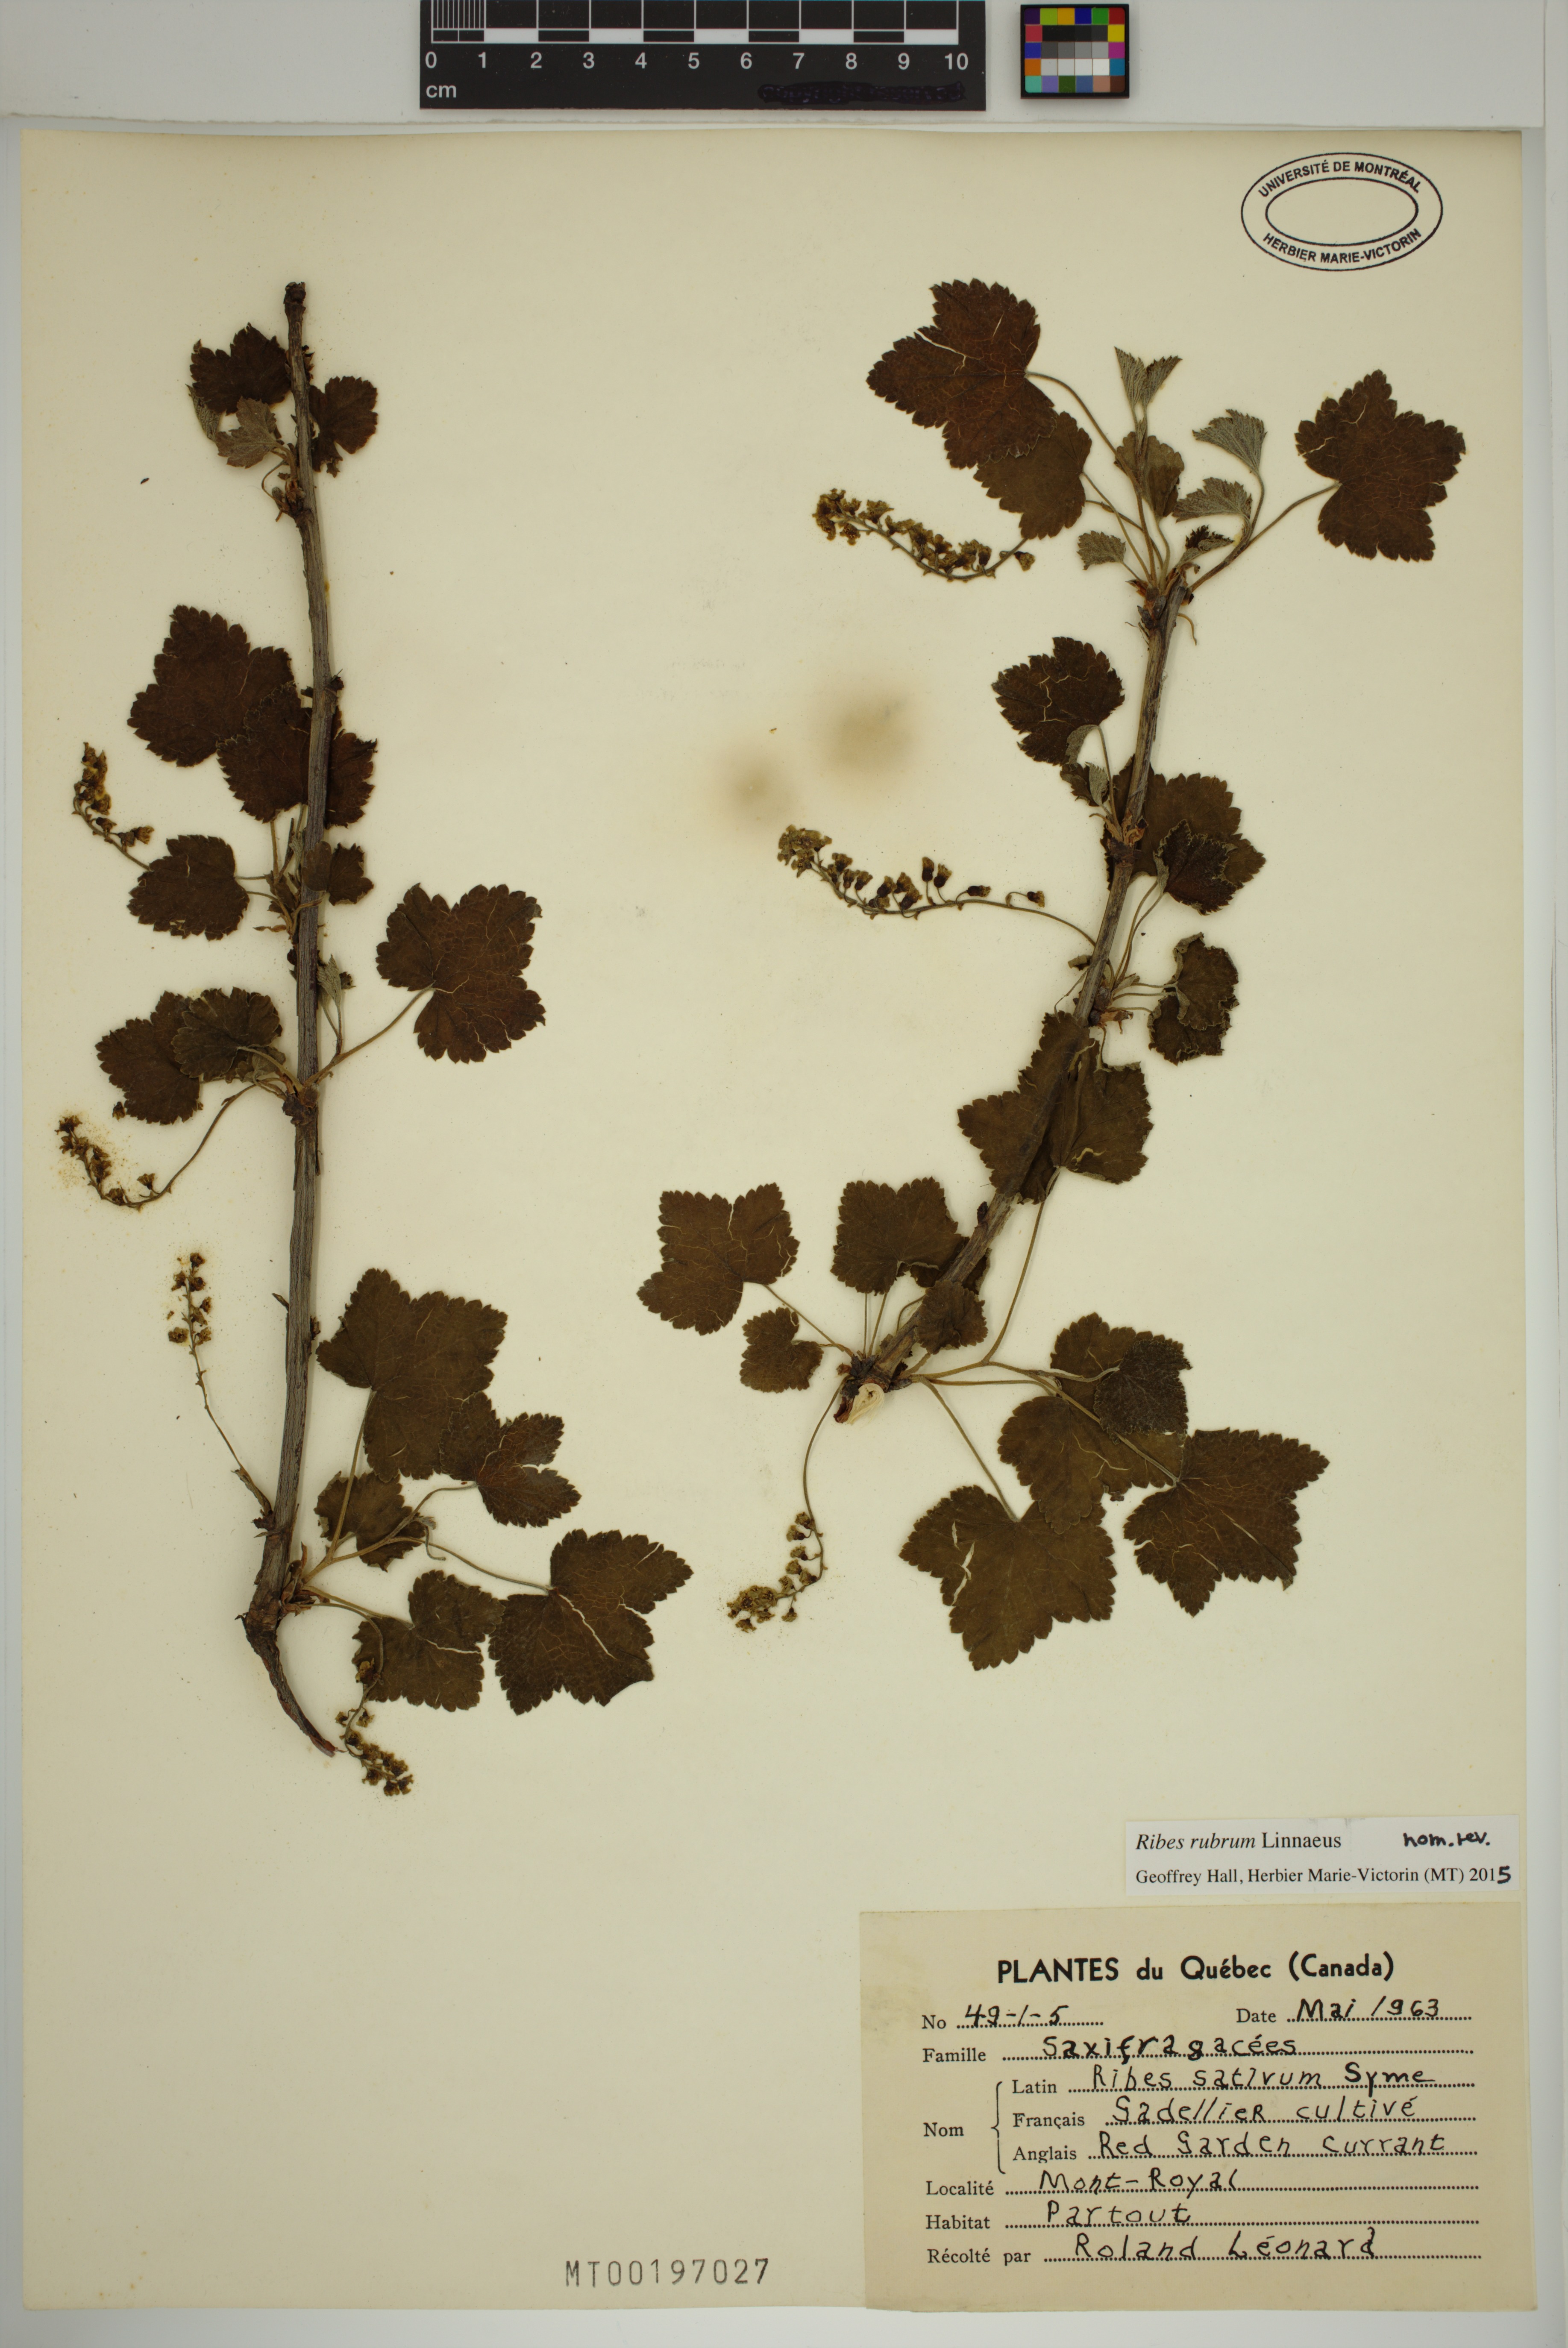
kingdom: Plantae
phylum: Tracheophyta
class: Magnoliopsida
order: Saxifragales
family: Grossulariaceae
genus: Ribes
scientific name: Ribes rubrum
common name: Red currant
